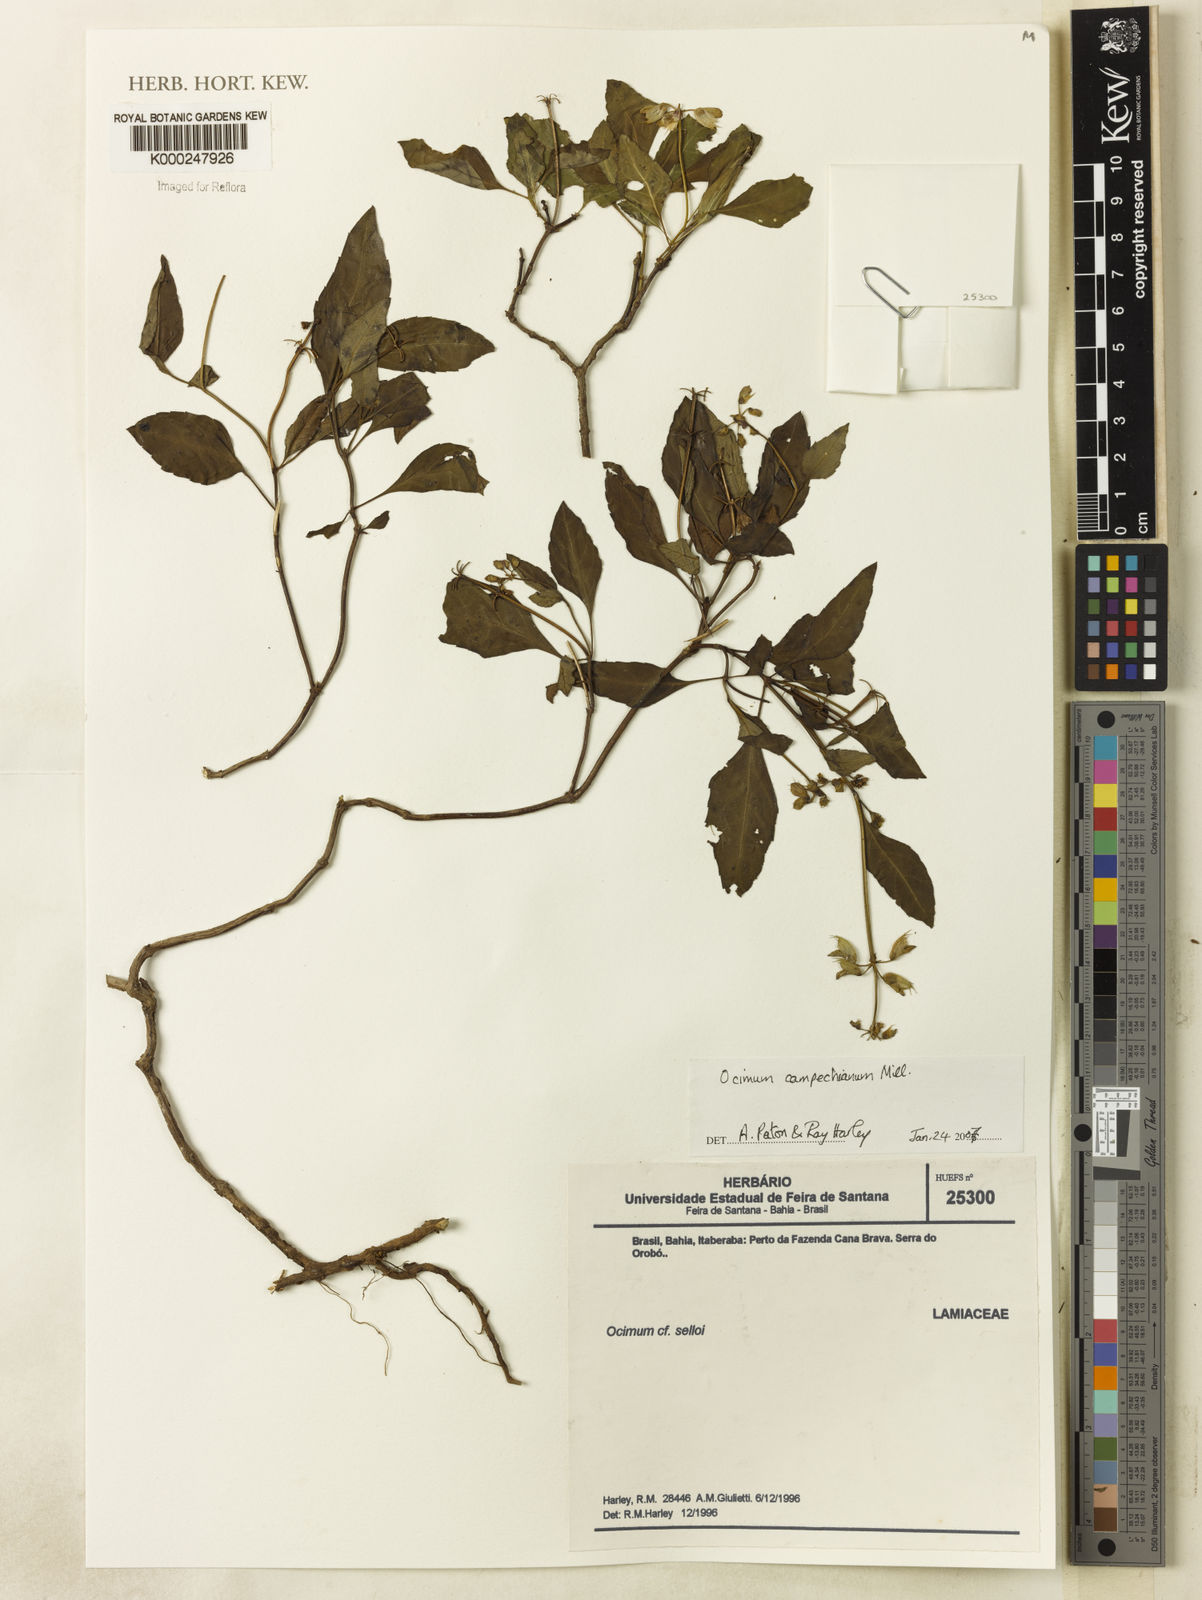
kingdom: Plantae
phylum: Tracheophyta
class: Magnoliopsida
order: Lamiales
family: Lamiaceae
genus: Ocimum
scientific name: Ocimum campechianum
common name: Mosquito basil
